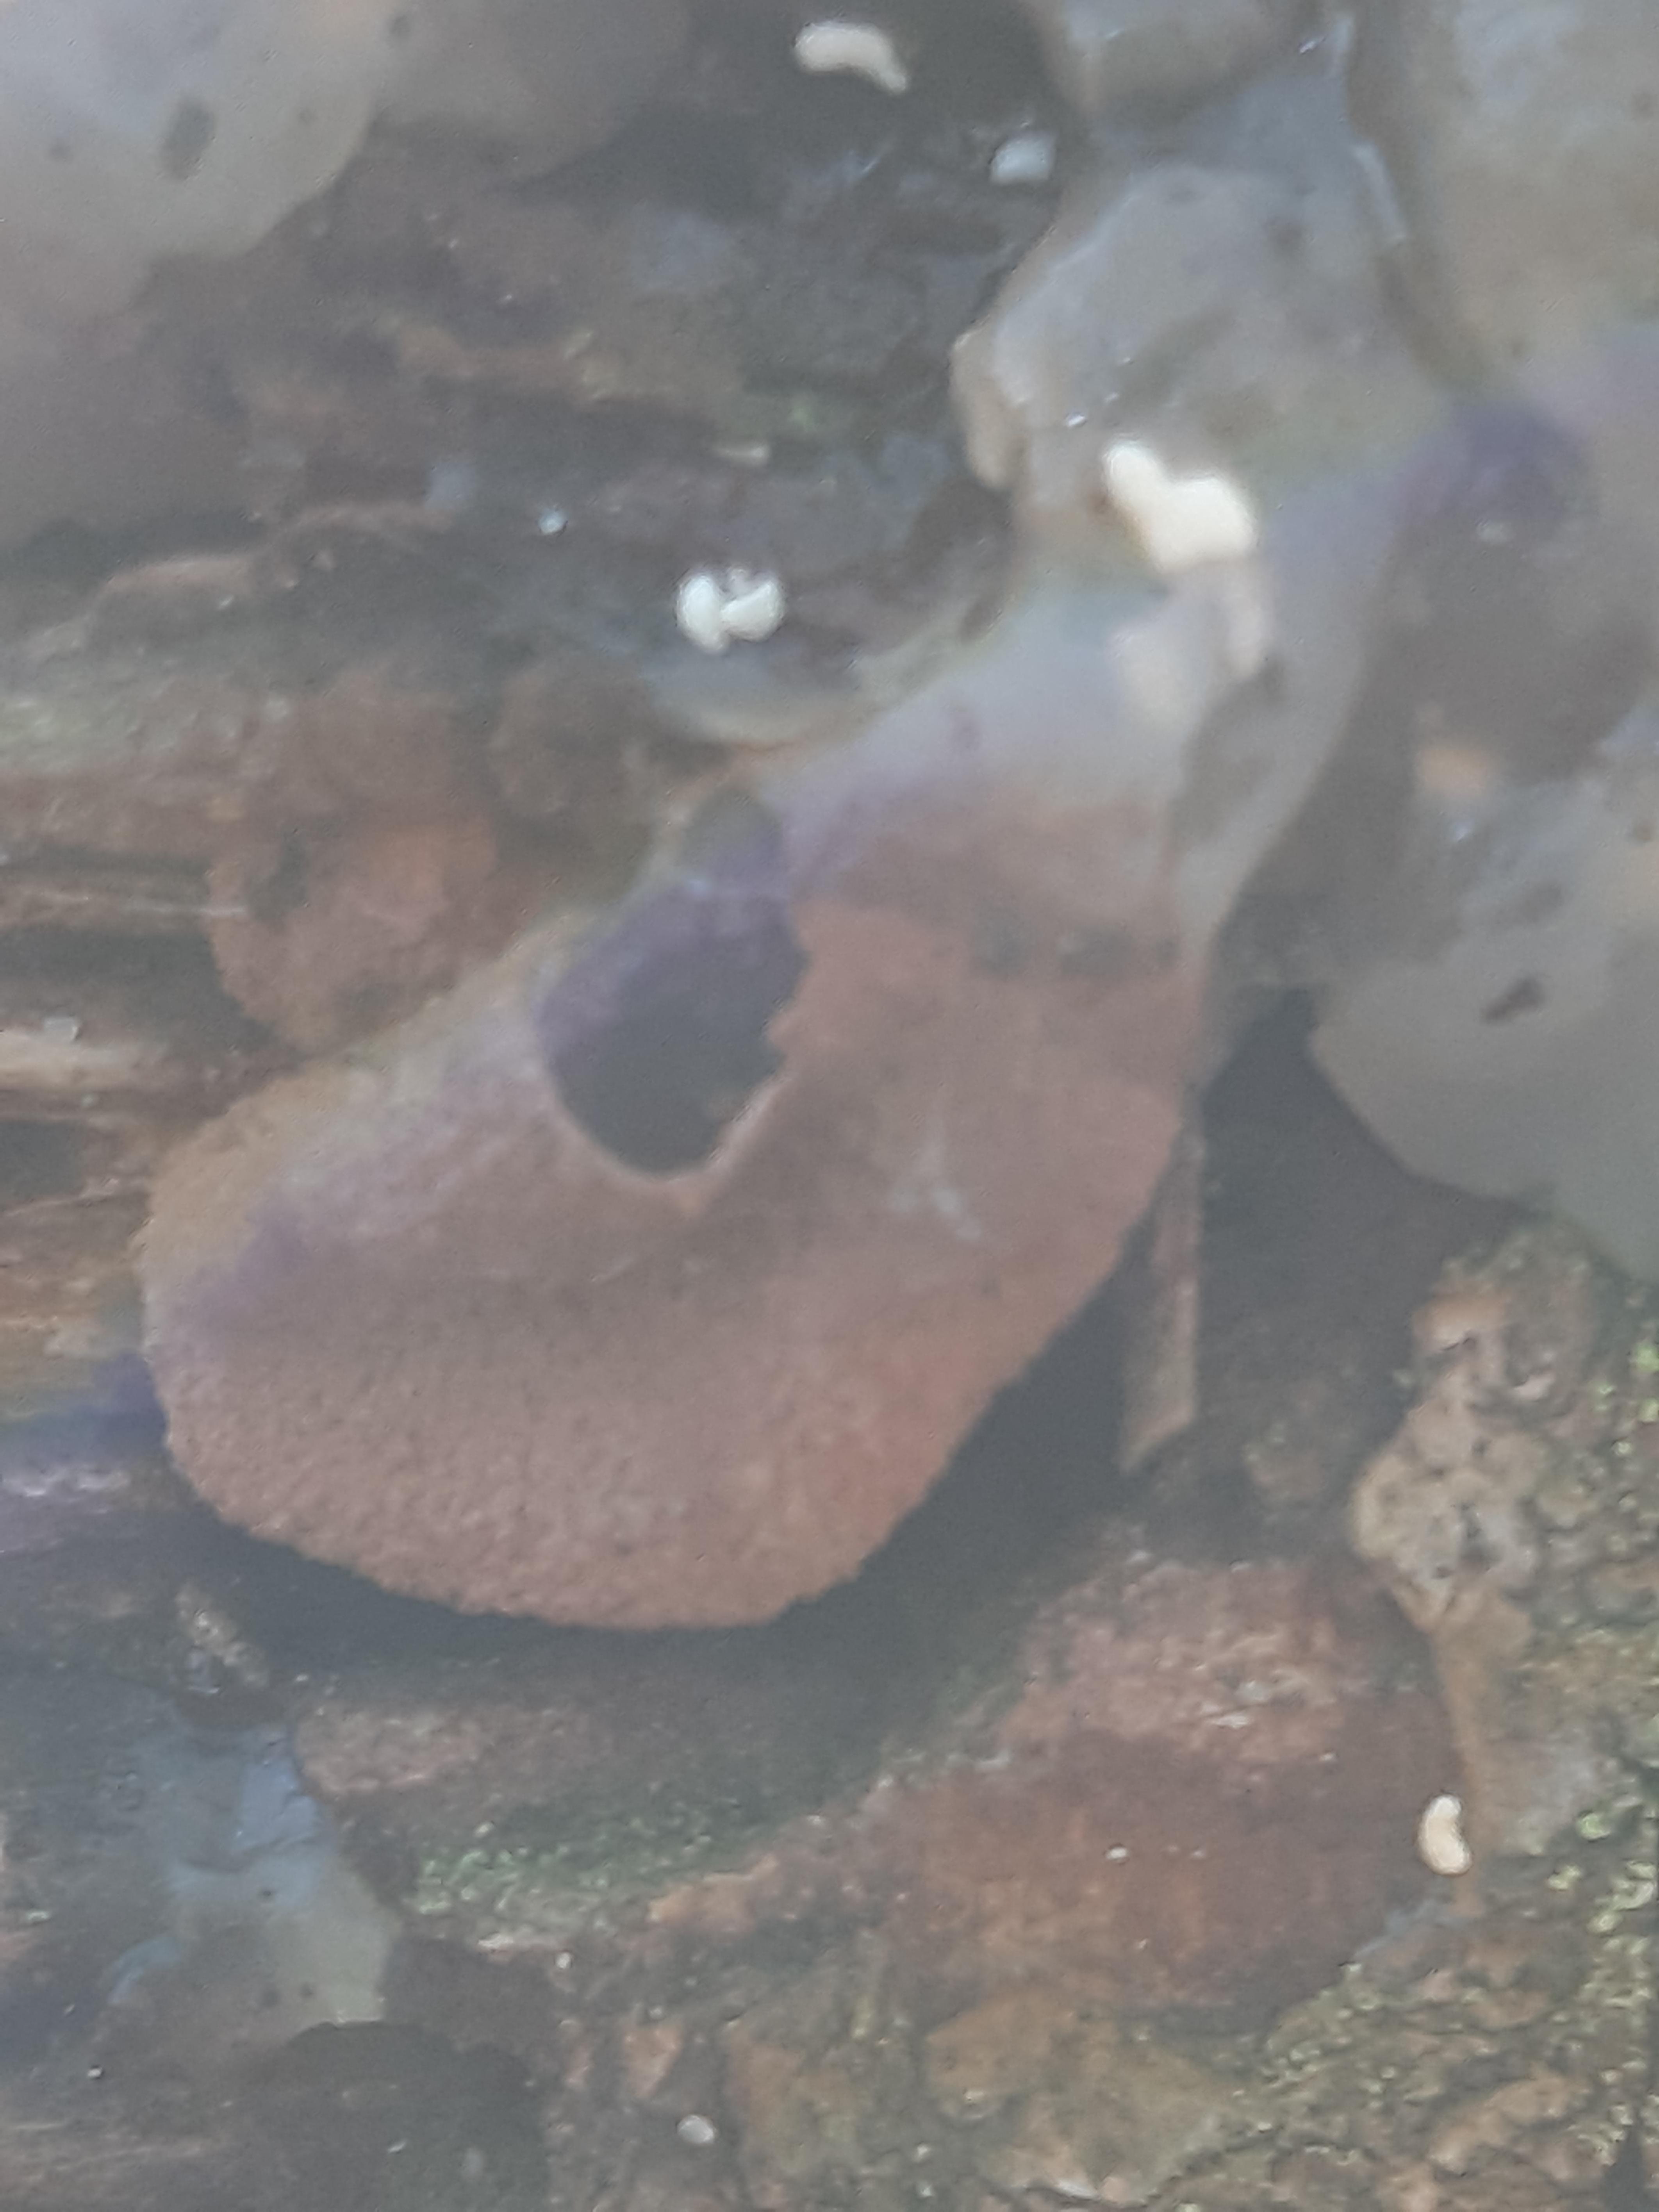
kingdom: Fungi
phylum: Ascomycota
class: Leotiomycetes
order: Helotiales
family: Cenangiaceae
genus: Encoelia
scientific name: Encoelia furfuracea
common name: hassel-læderskive
